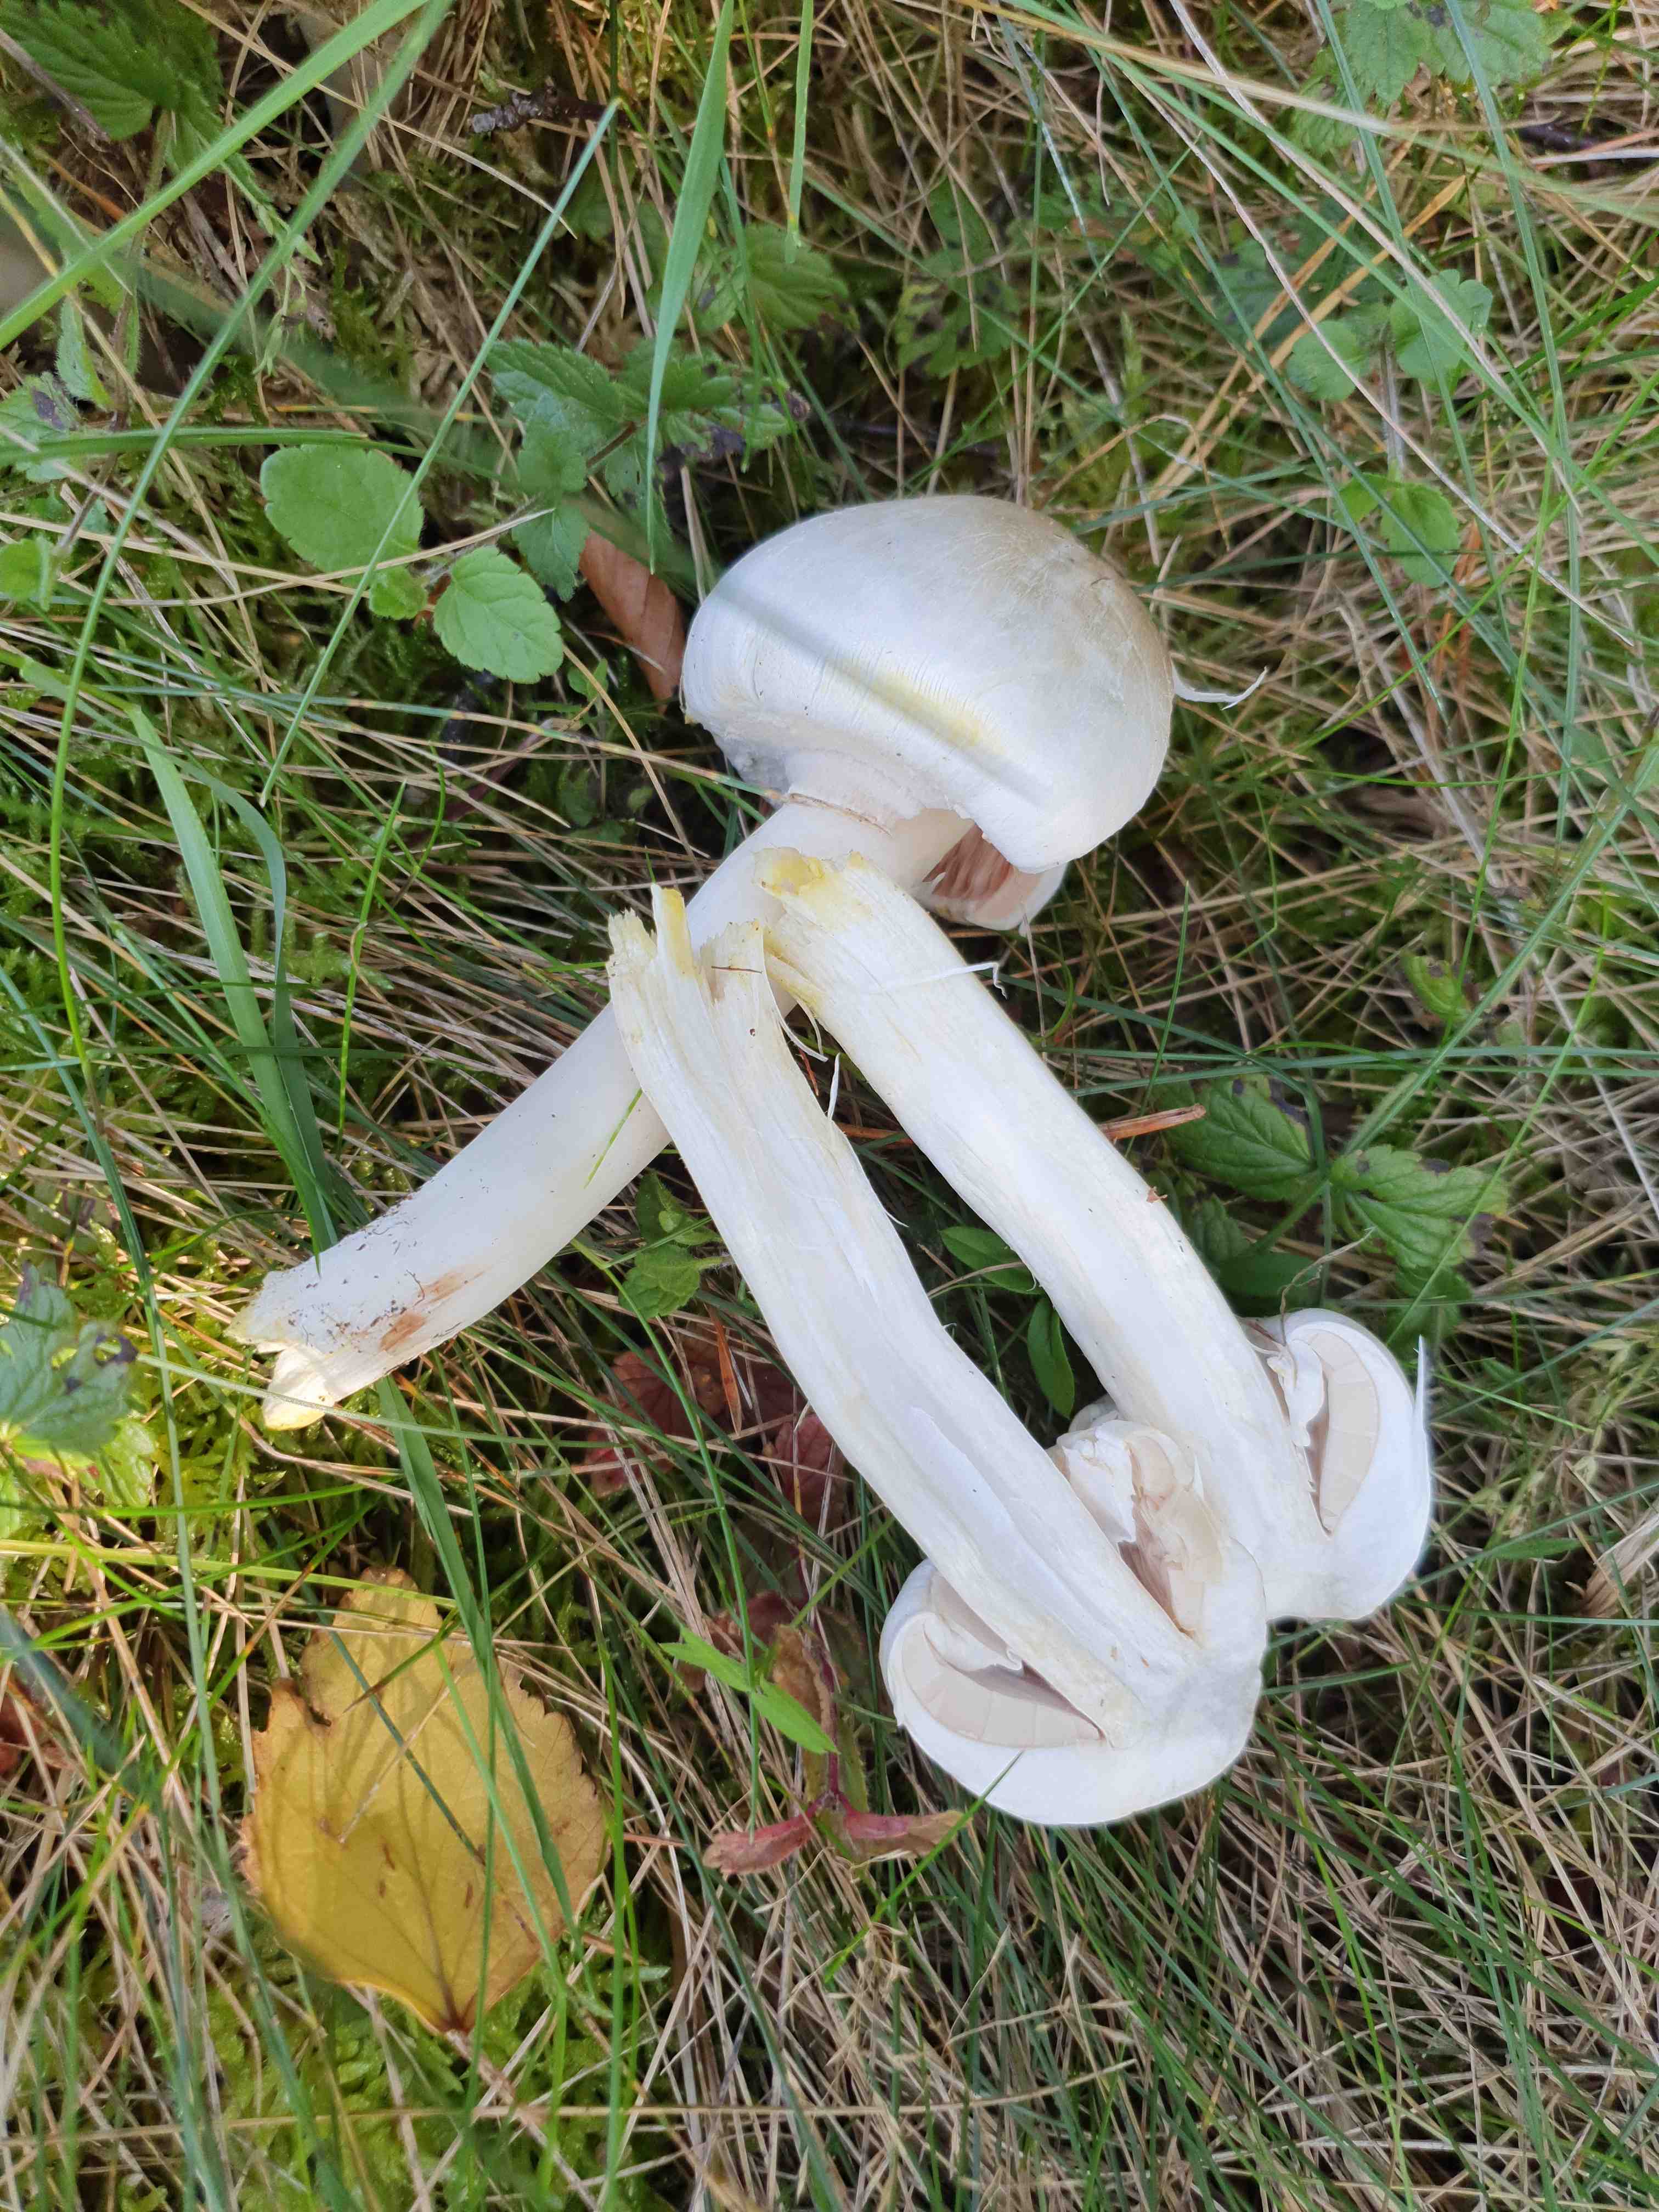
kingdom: Fungi
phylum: Basidiomycota
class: Agaricomycetes
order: Agaricales
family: Agaricaceae
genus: Agaricus
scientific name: Agaricus xanthodermus
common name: karbol-champignon
